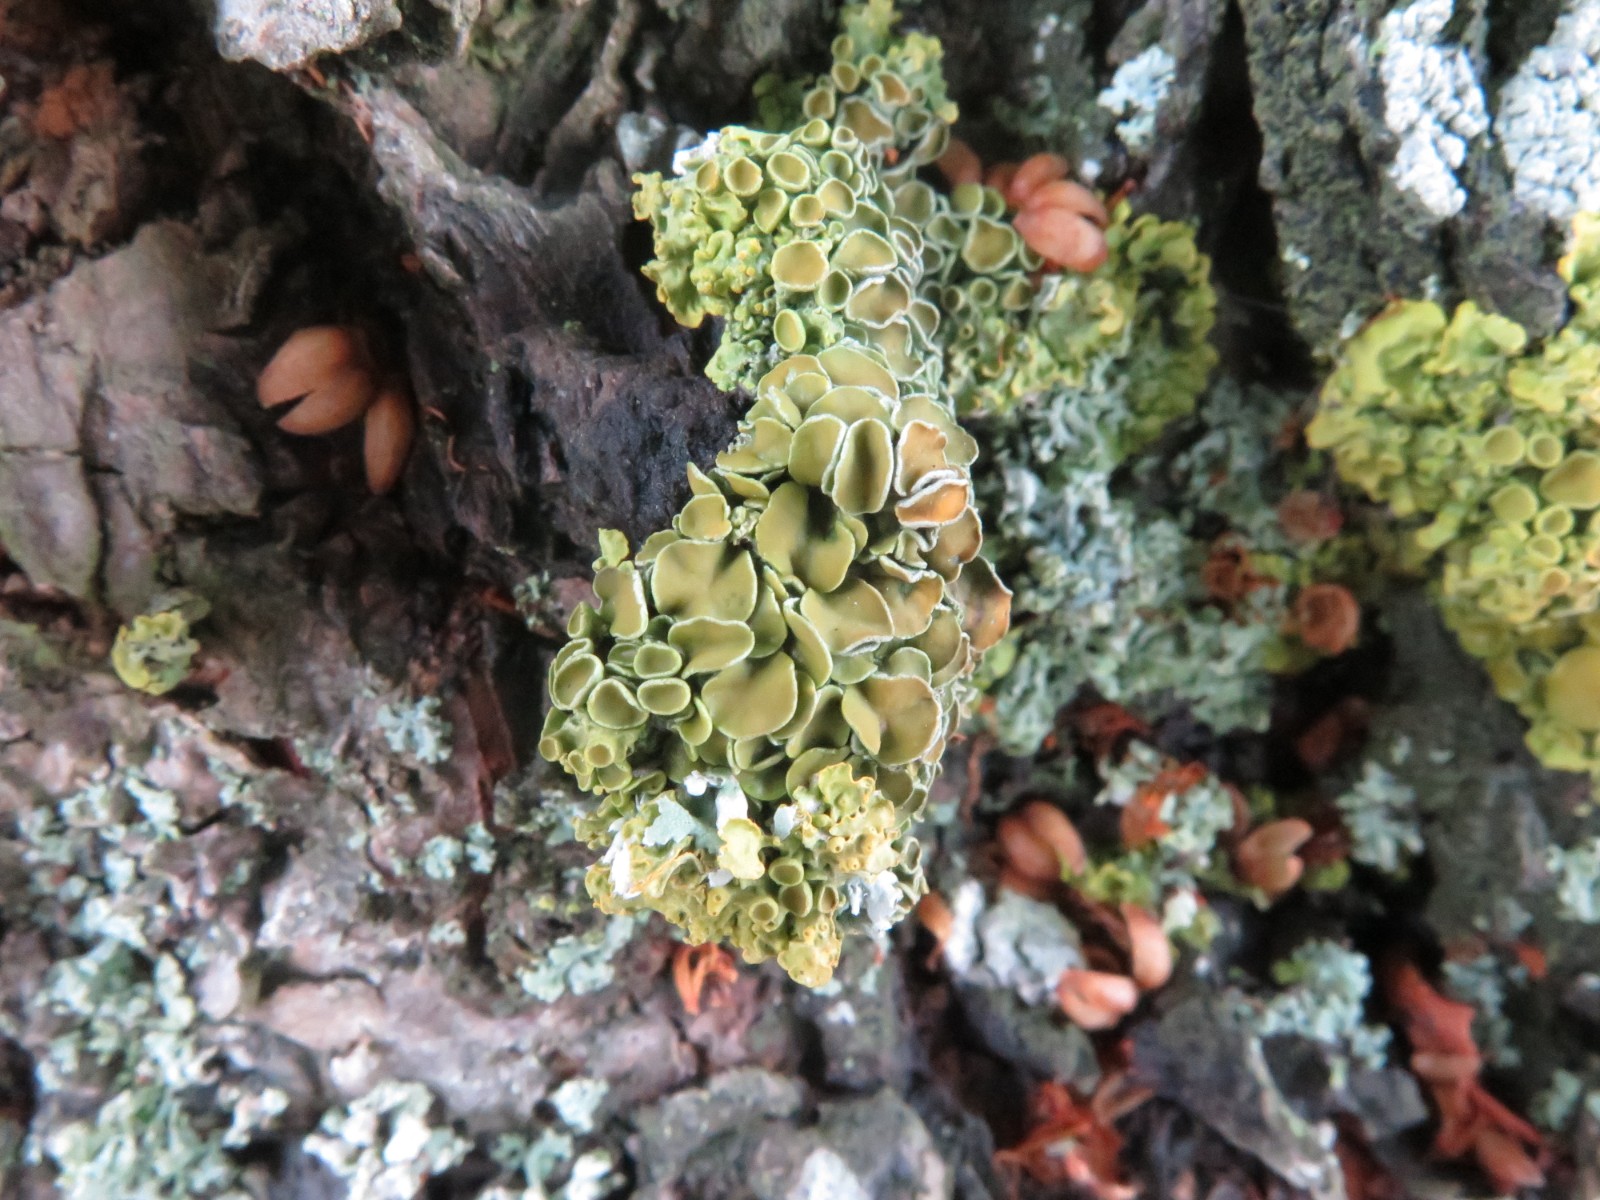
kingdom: Fungi
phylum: Ascomycota
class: Lecanoromycetes
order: Teloschistales
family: Teloschistaceae
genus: Polycauliona
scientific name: Polycauliona polycarpa
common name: mangefrugtet orangelav
